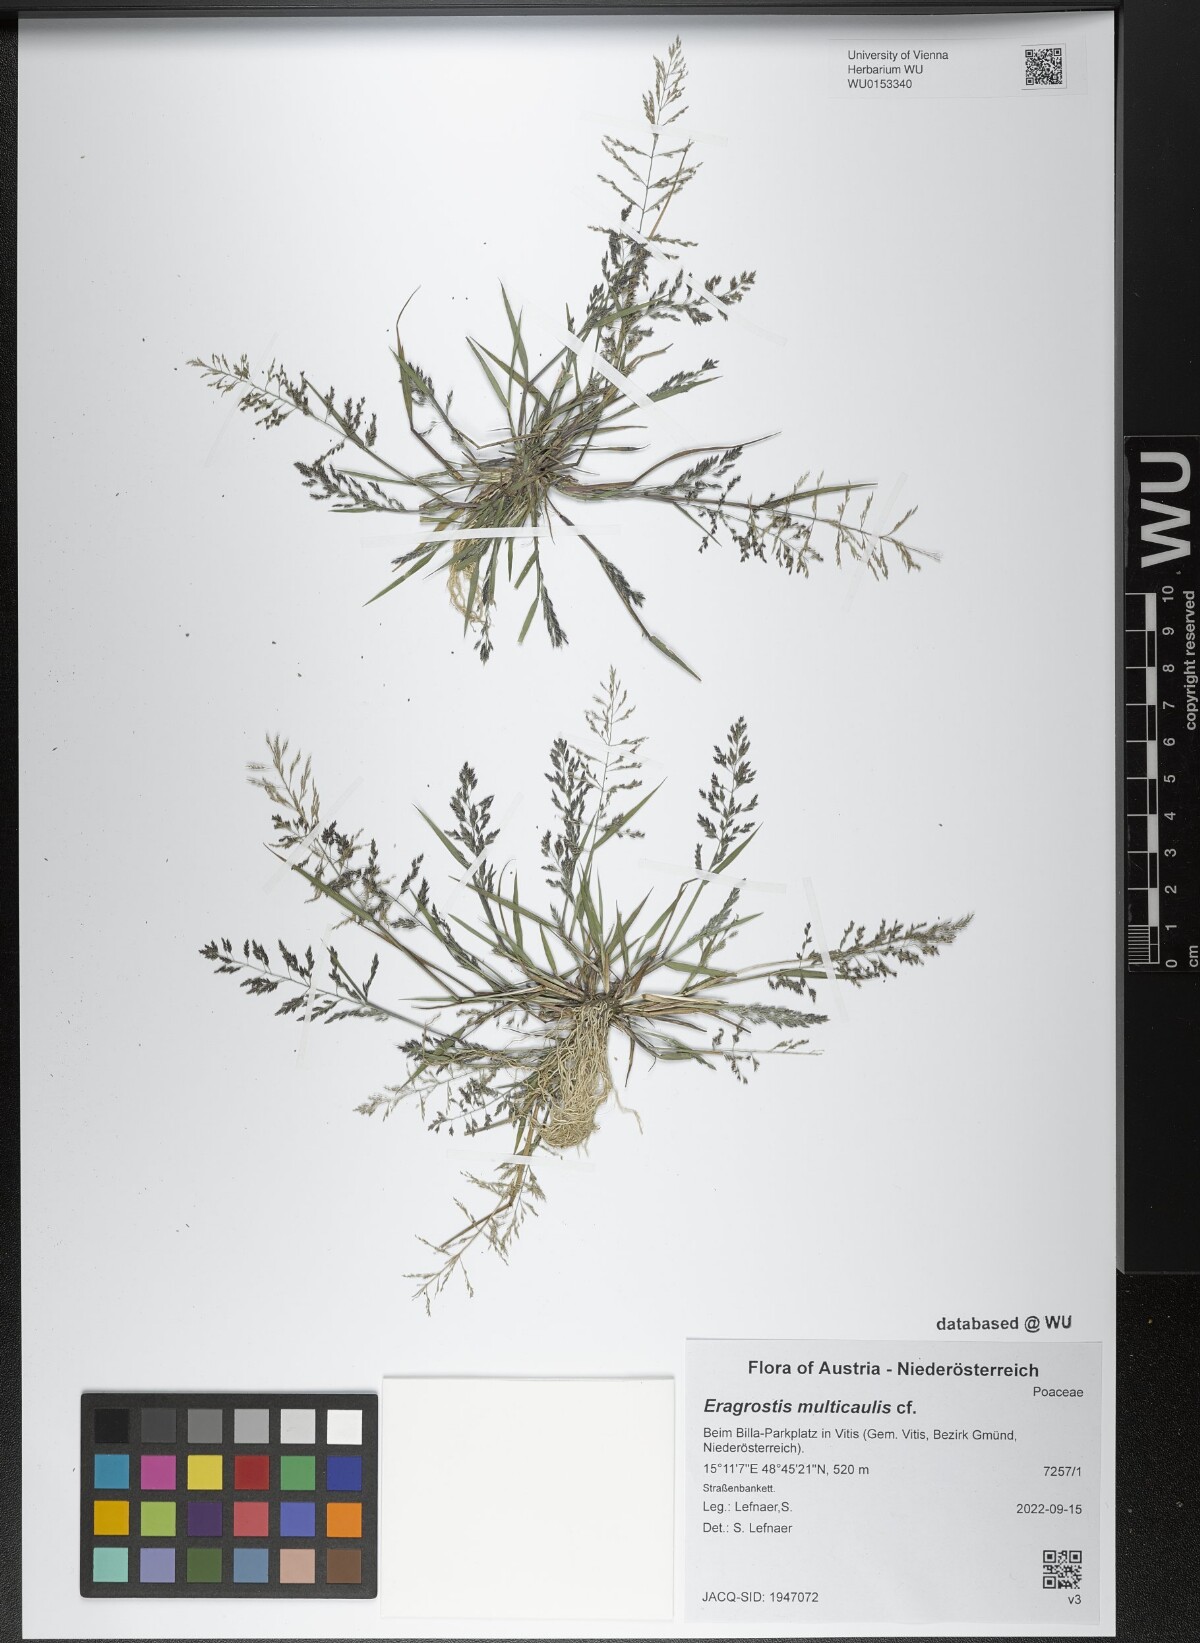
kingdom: Plantae
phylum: Tracheophyta
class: Liliopsida
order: Poales
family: Poaceae
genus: Eragrostis
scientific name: Eragrostis multicaulis
